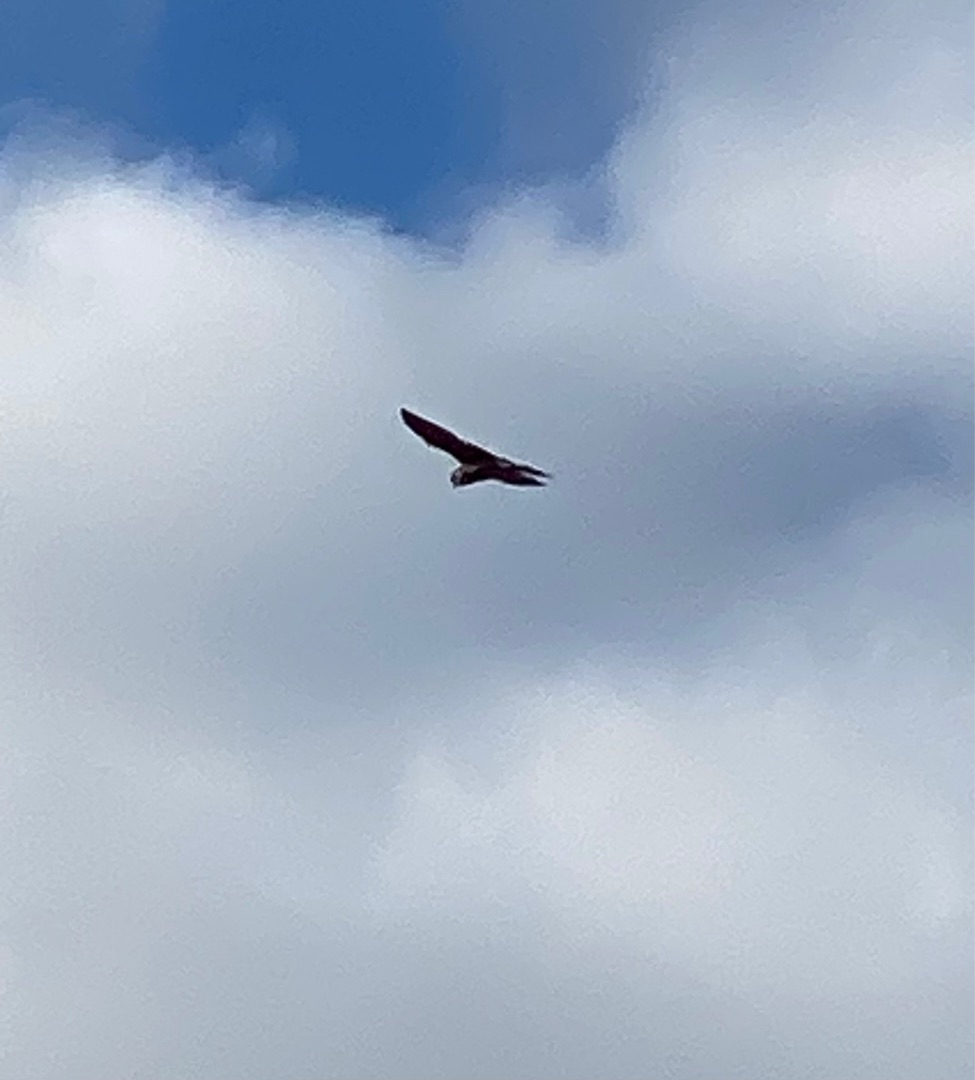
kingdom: Animalia
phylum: Chordata
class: Aves
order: Falconiformes
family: Falconidae
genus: Falco
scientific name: Falco tinnunculus
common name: Tårnfalk
